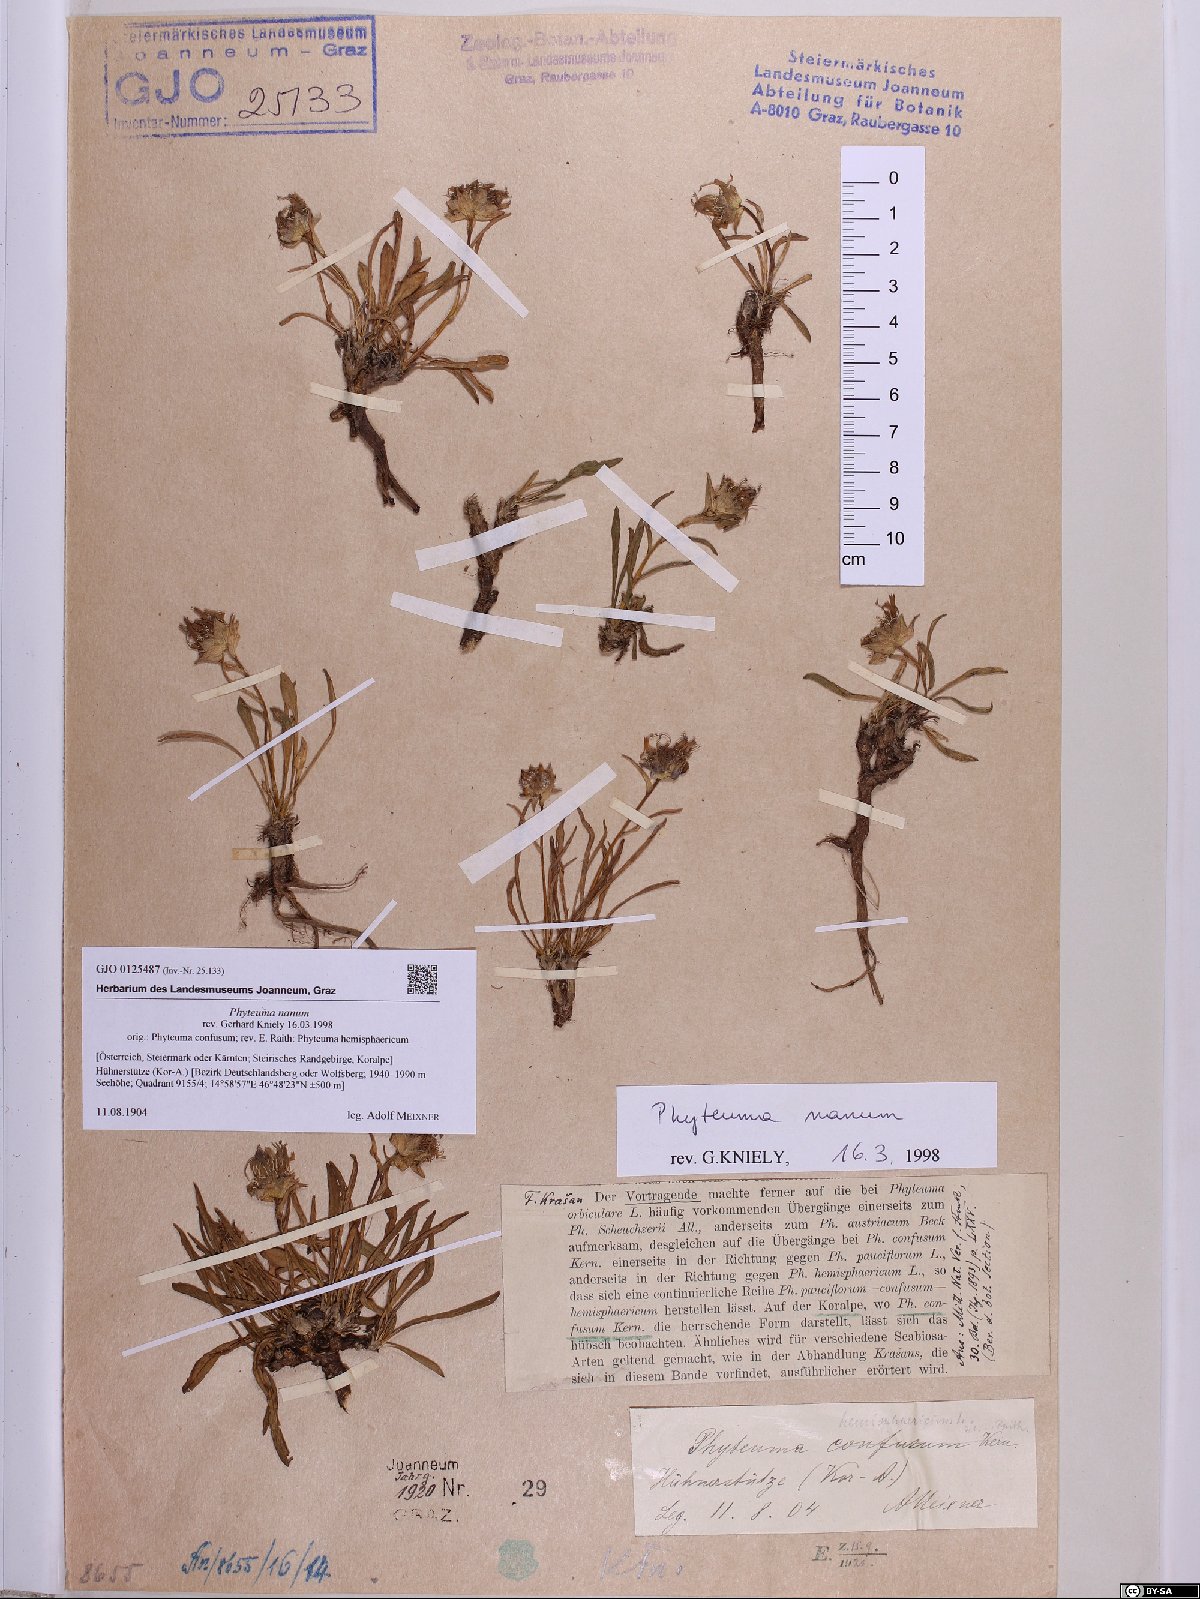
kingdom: Plantae
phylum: Tracheophyta
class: Magnoliopsida
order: Asterales
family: Campanulaceae
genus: Phyteuma
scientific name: Phyteuma globulariifolium
